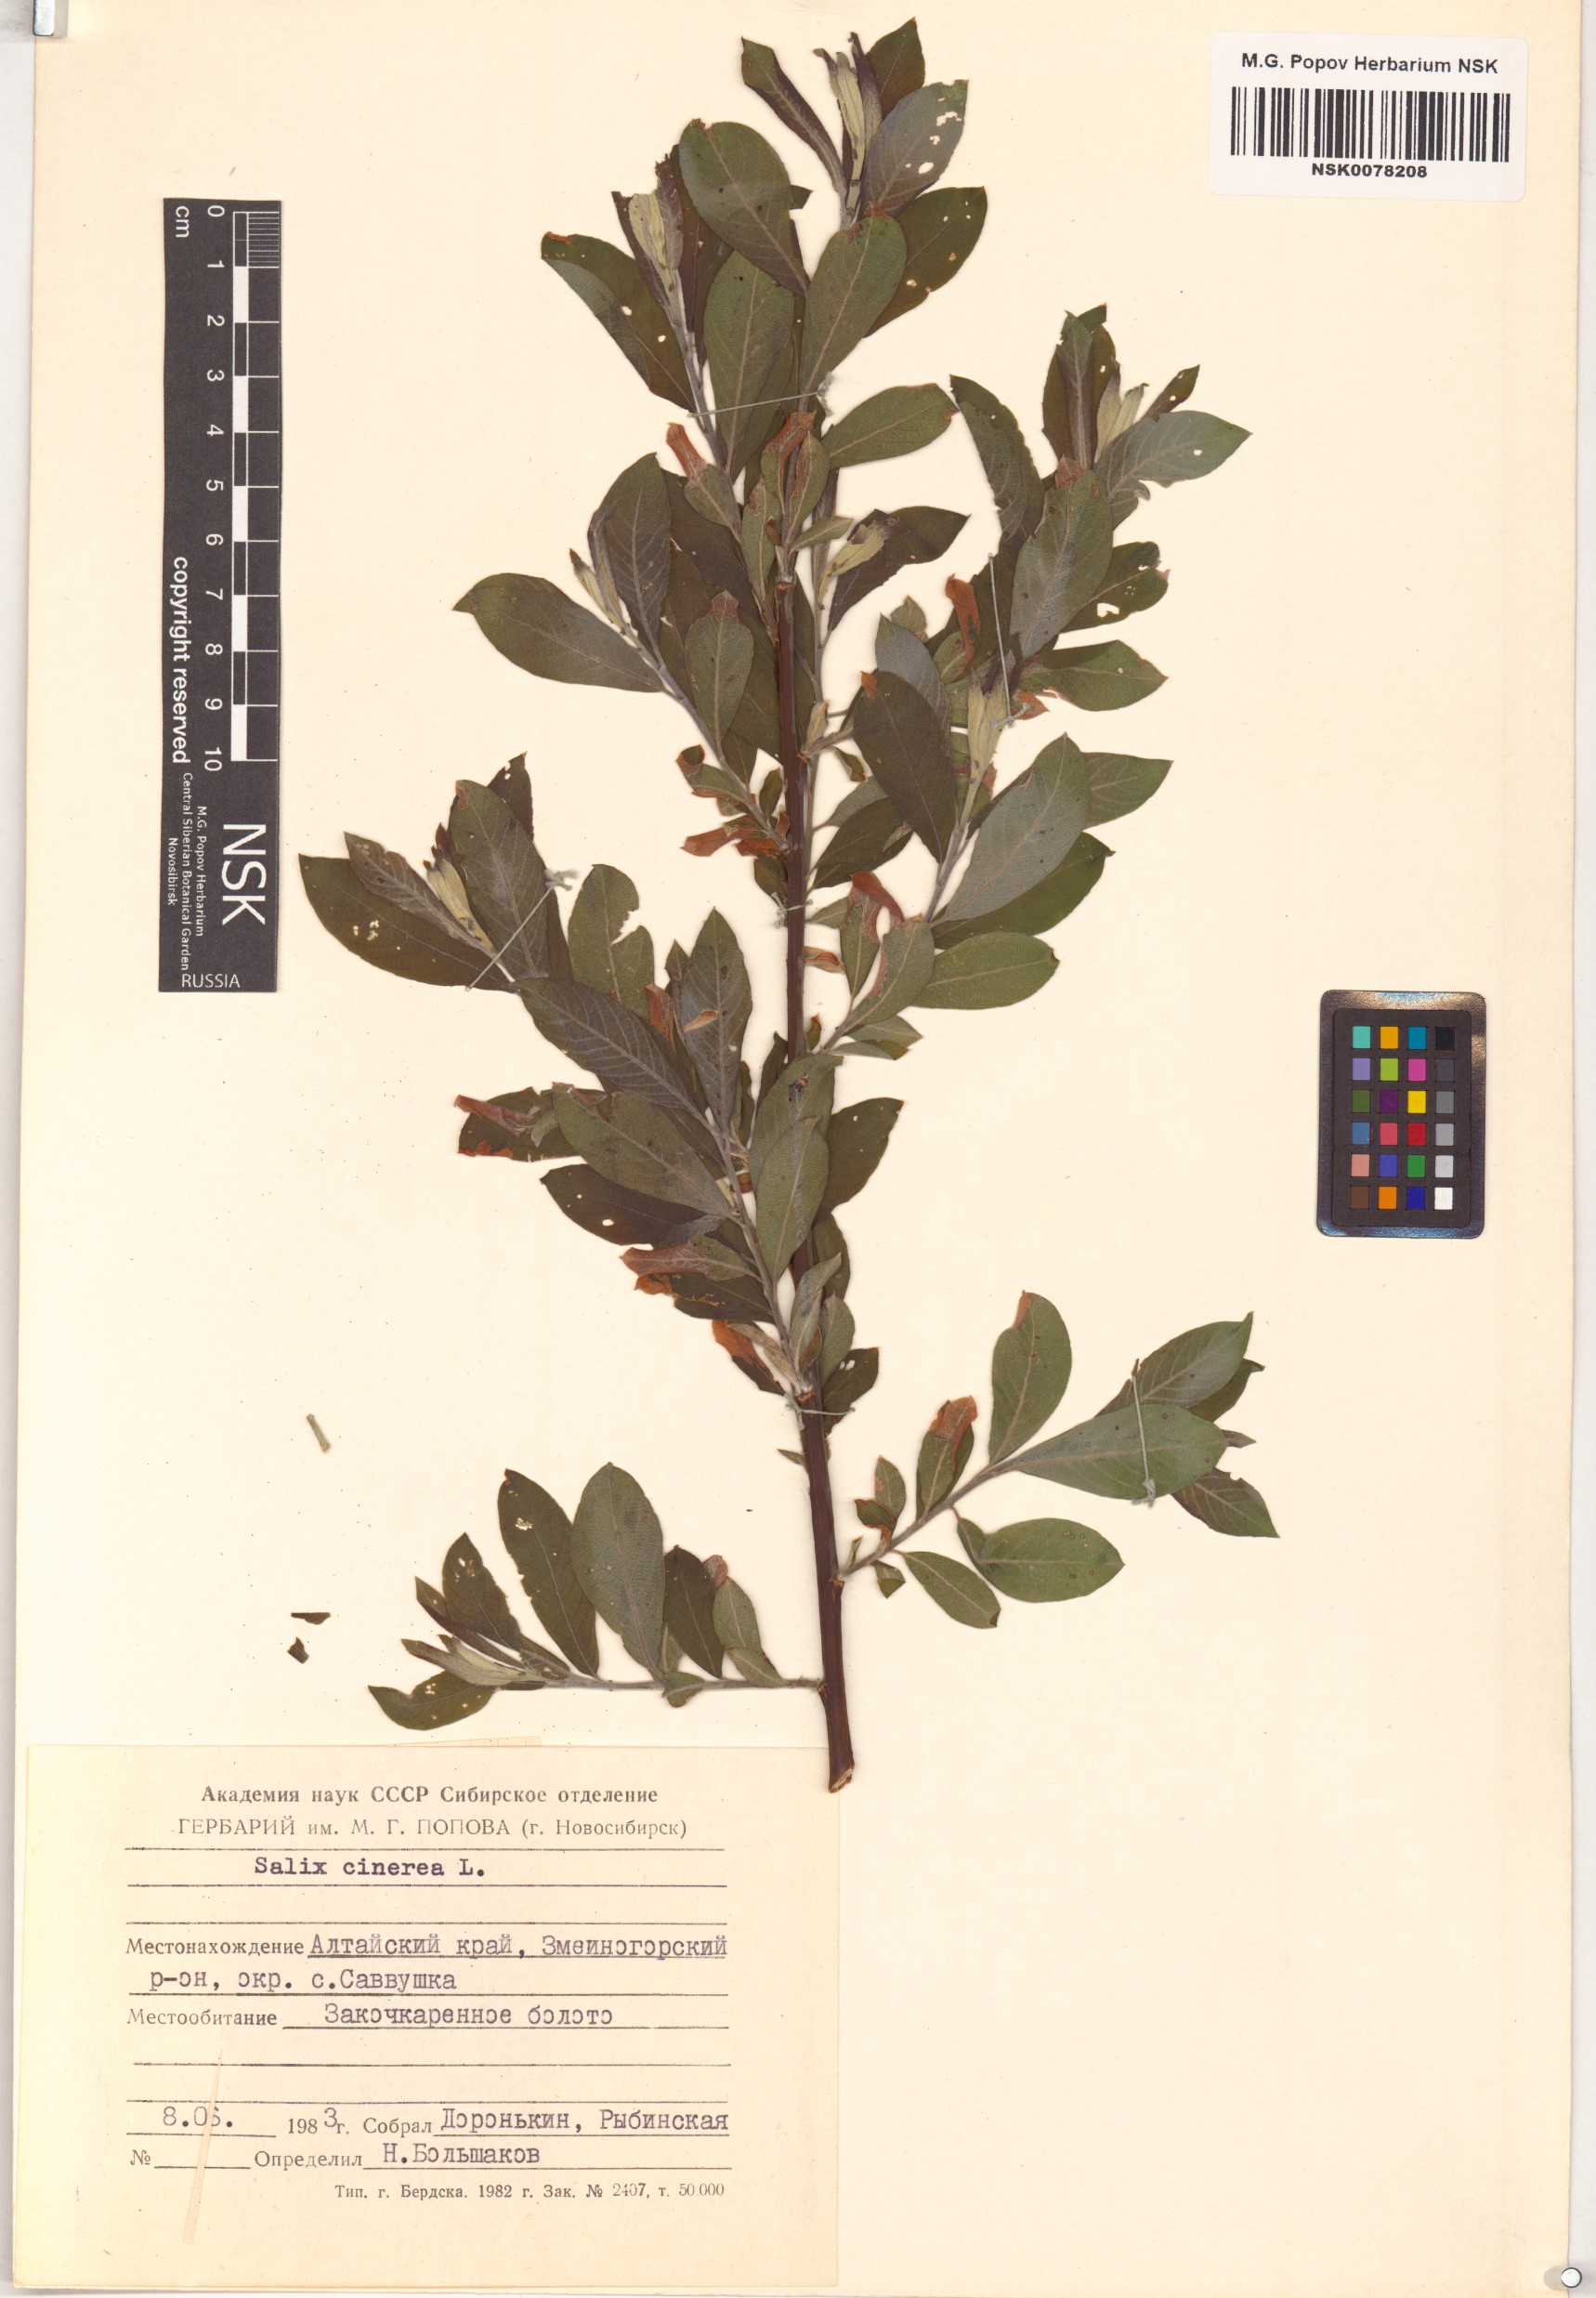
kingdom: Plantae
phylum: Tracheophyta
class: Magnoliopsida
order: Malpighiales
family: Salicaceae
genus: Salix
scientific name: Salix cinerea
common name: Common sallow
